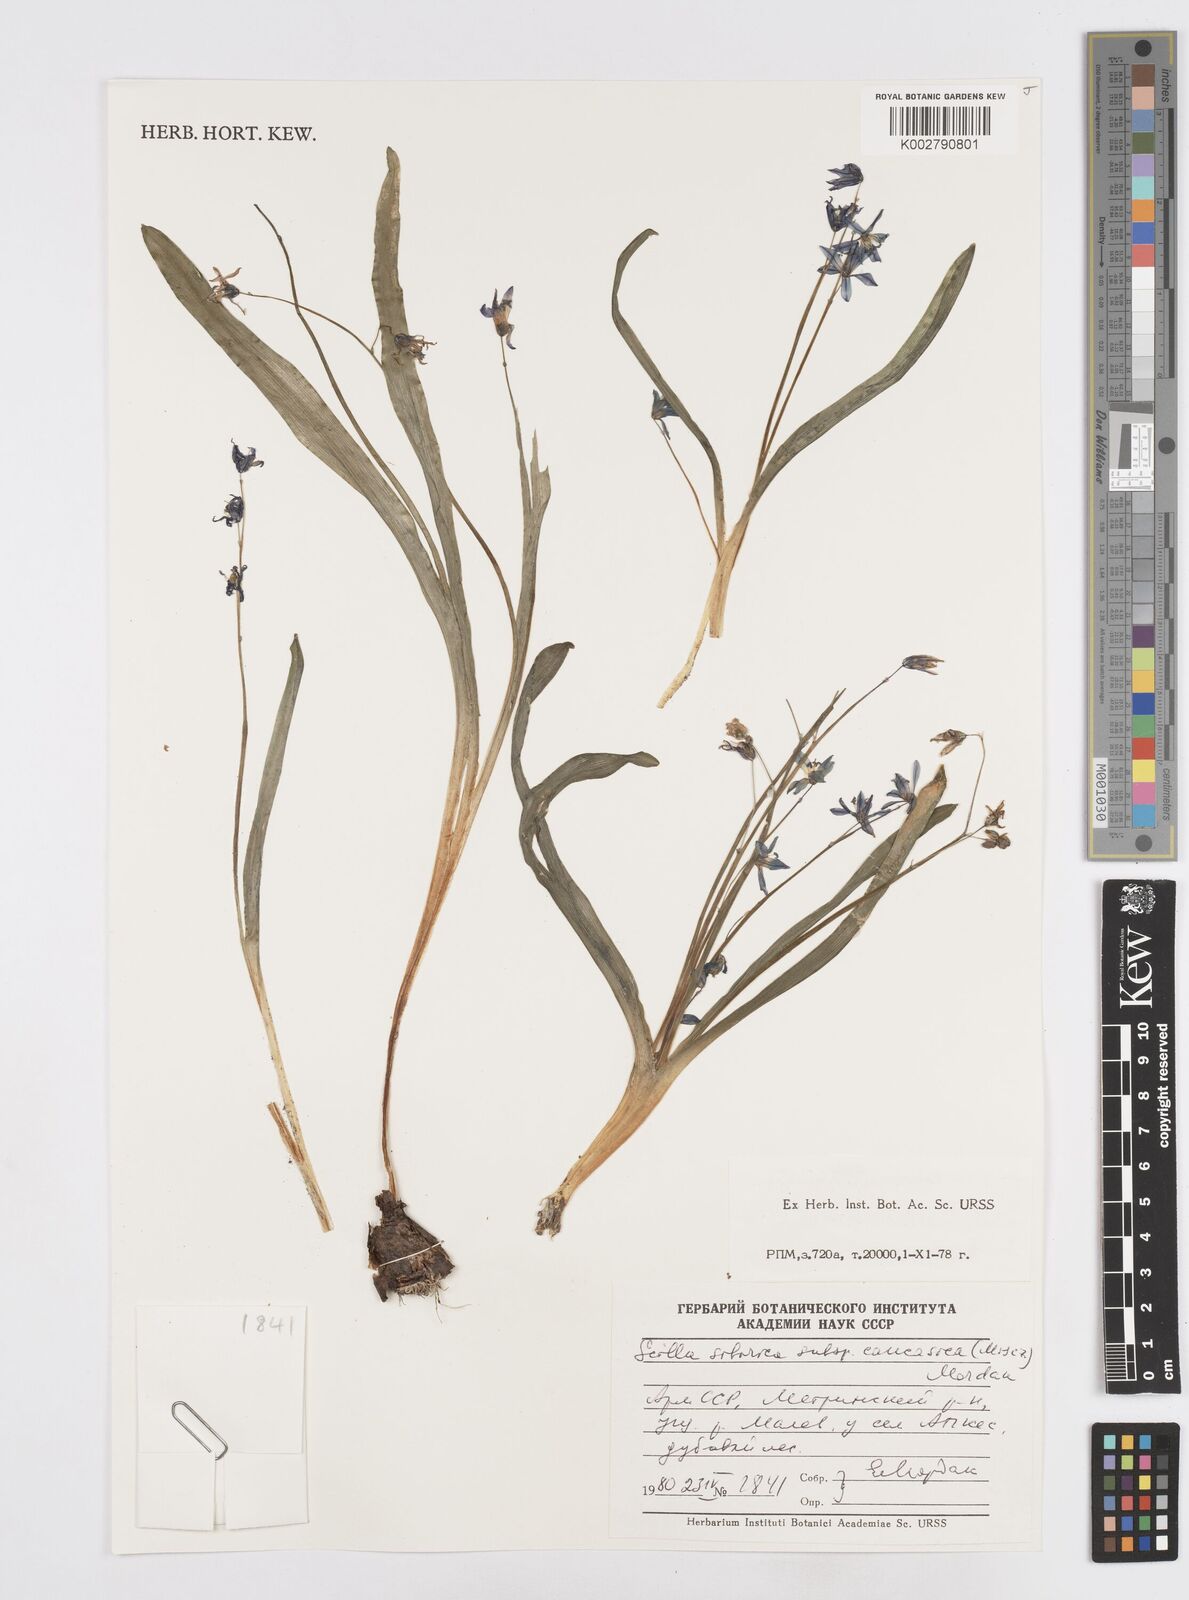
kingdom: Plantae
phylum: Tracheophyta
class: Liliopsida
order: Asparagales
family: Asparagaceae
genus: Scilla
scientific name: Scilla siberica
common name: Siberian squill
